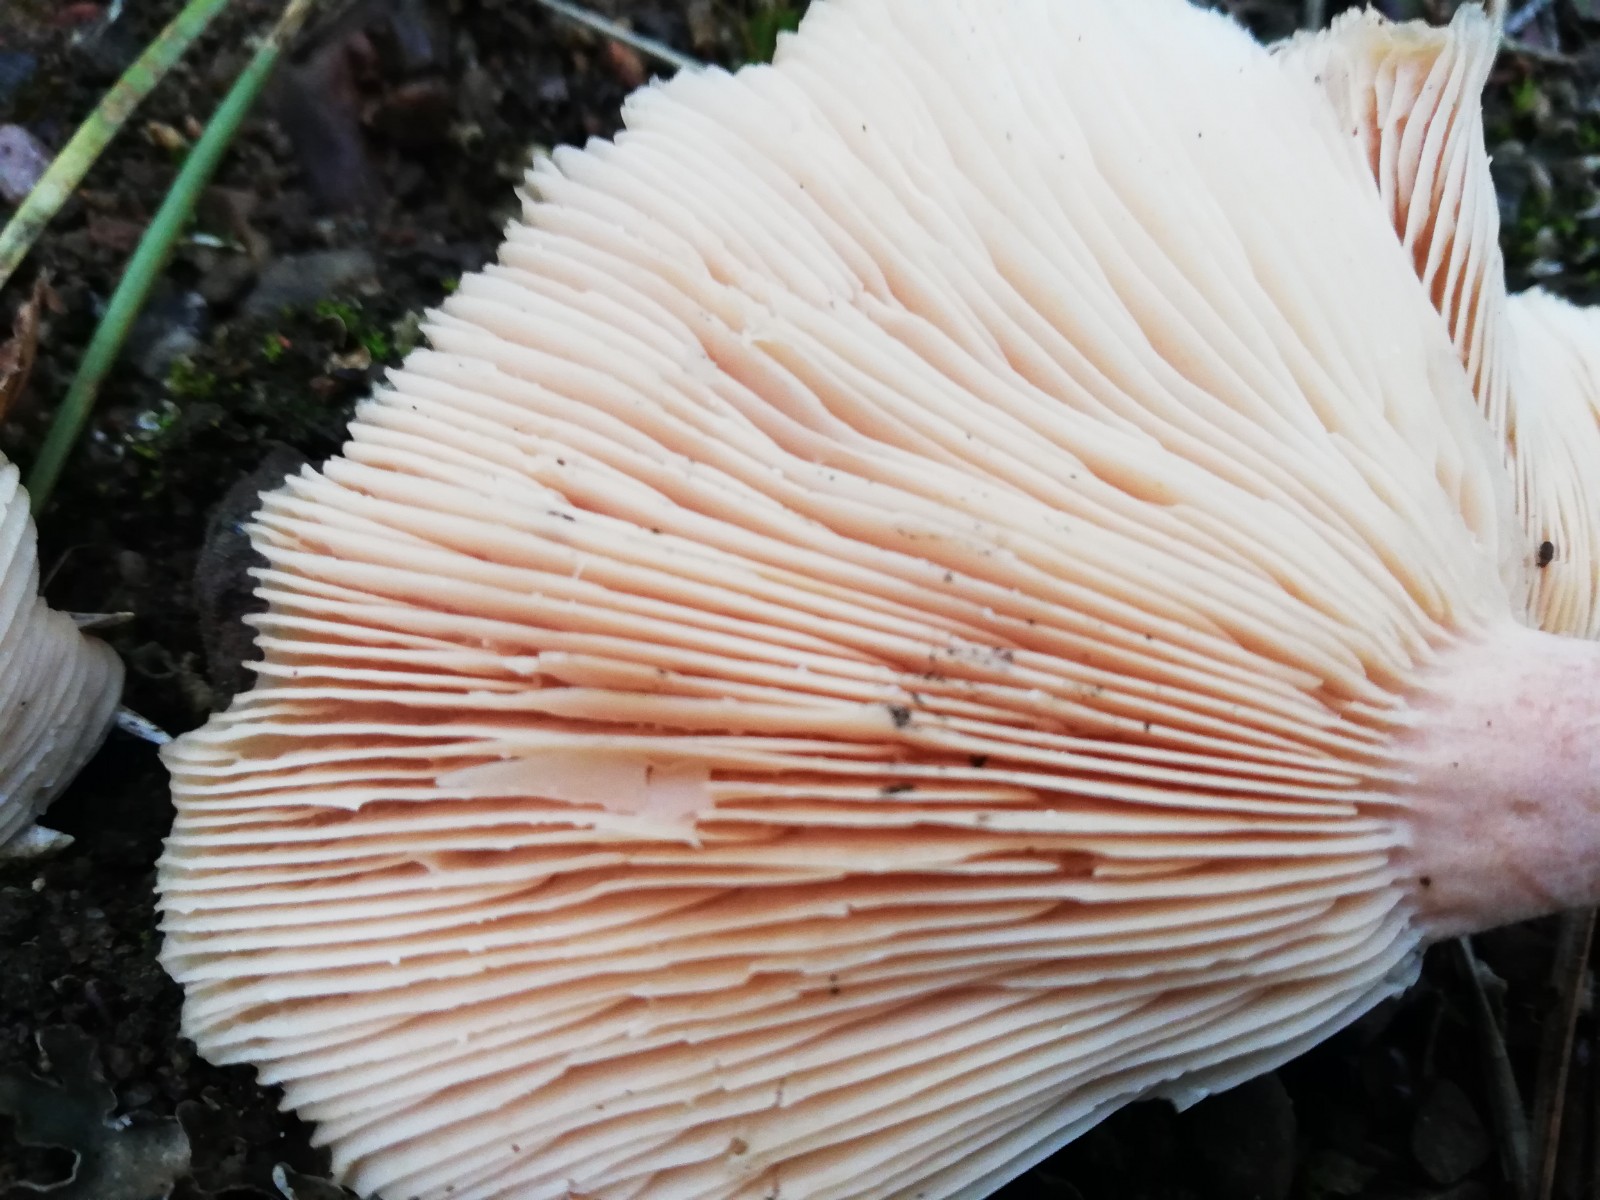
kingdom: Fungi
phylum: Basidiomycota
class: Agaricomycetes
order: Russulales
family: Russulaceae
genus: Lactarius
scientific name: Lactarius torminosus
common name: skægget mælkehat
